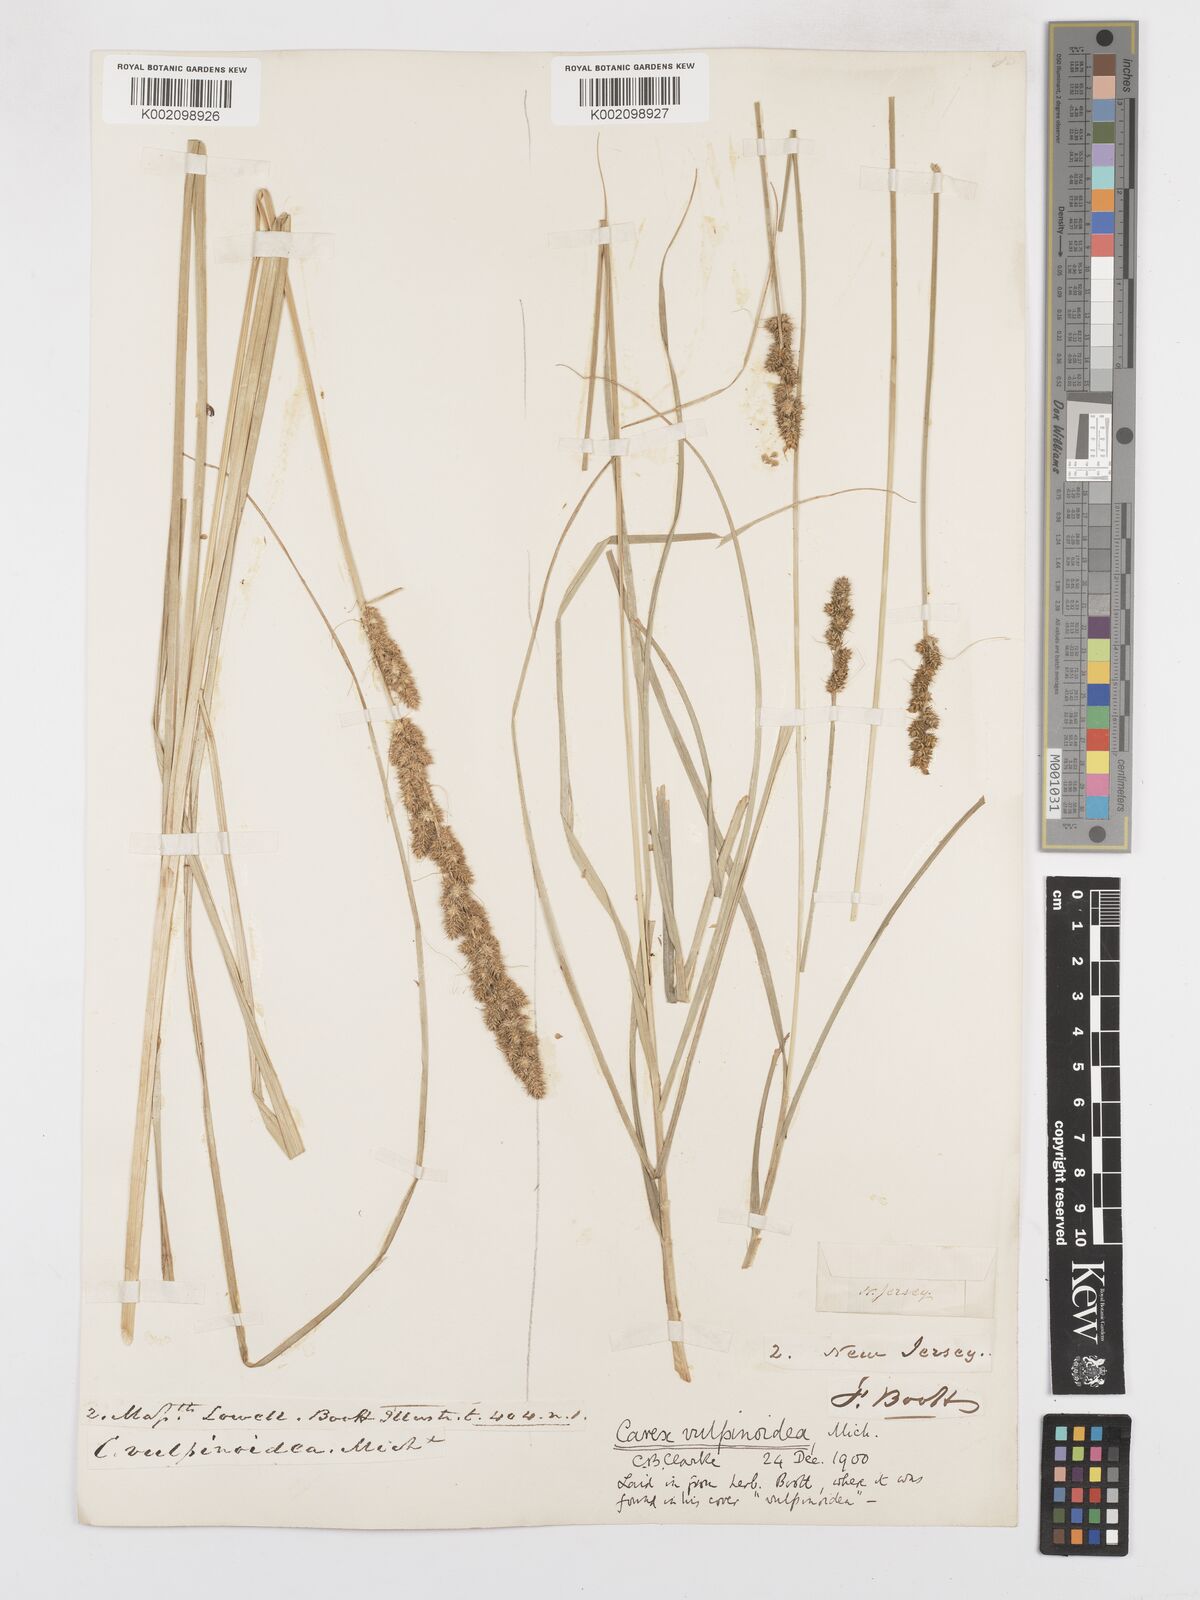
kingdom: Plantae
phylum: Tracheophyta
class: Liliopsida
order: Poales
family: Cyperaceae
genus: Carex
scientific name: Carex vulpinoidea
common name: American fox-sedge
